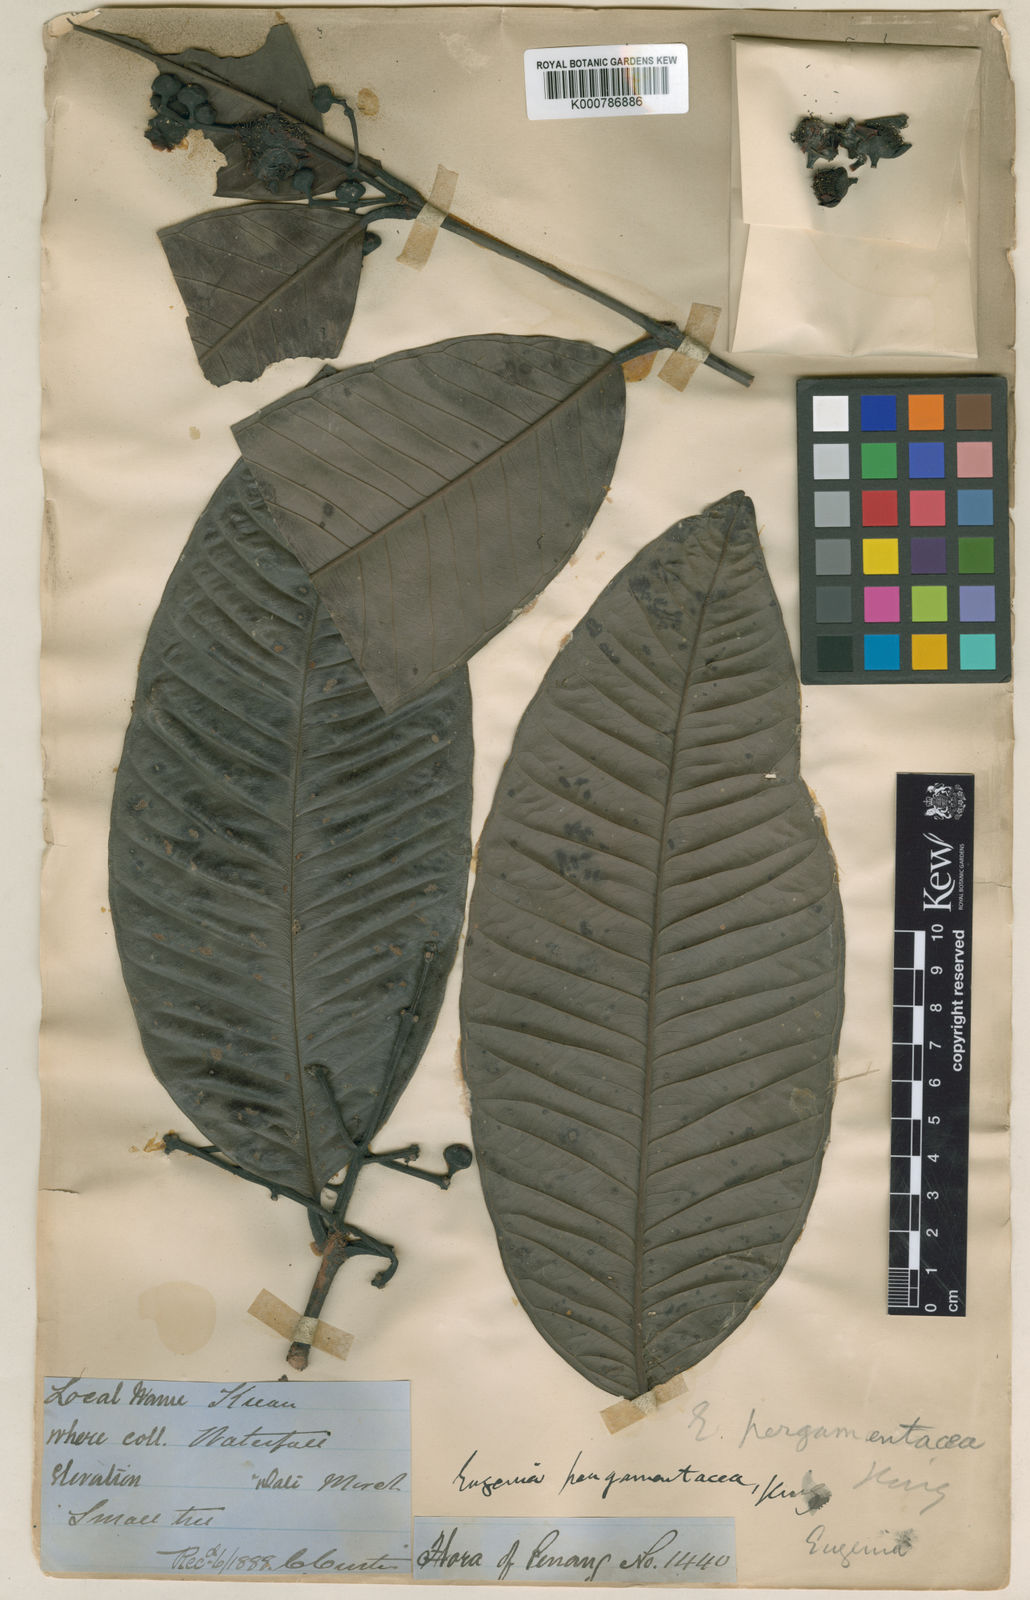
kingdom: Plantae
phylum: Tracheophyta
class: Magnoliopsida
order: Myrtales
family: Myrtaceae
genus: Syzygium
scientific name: Syzygium pergamentaceum
